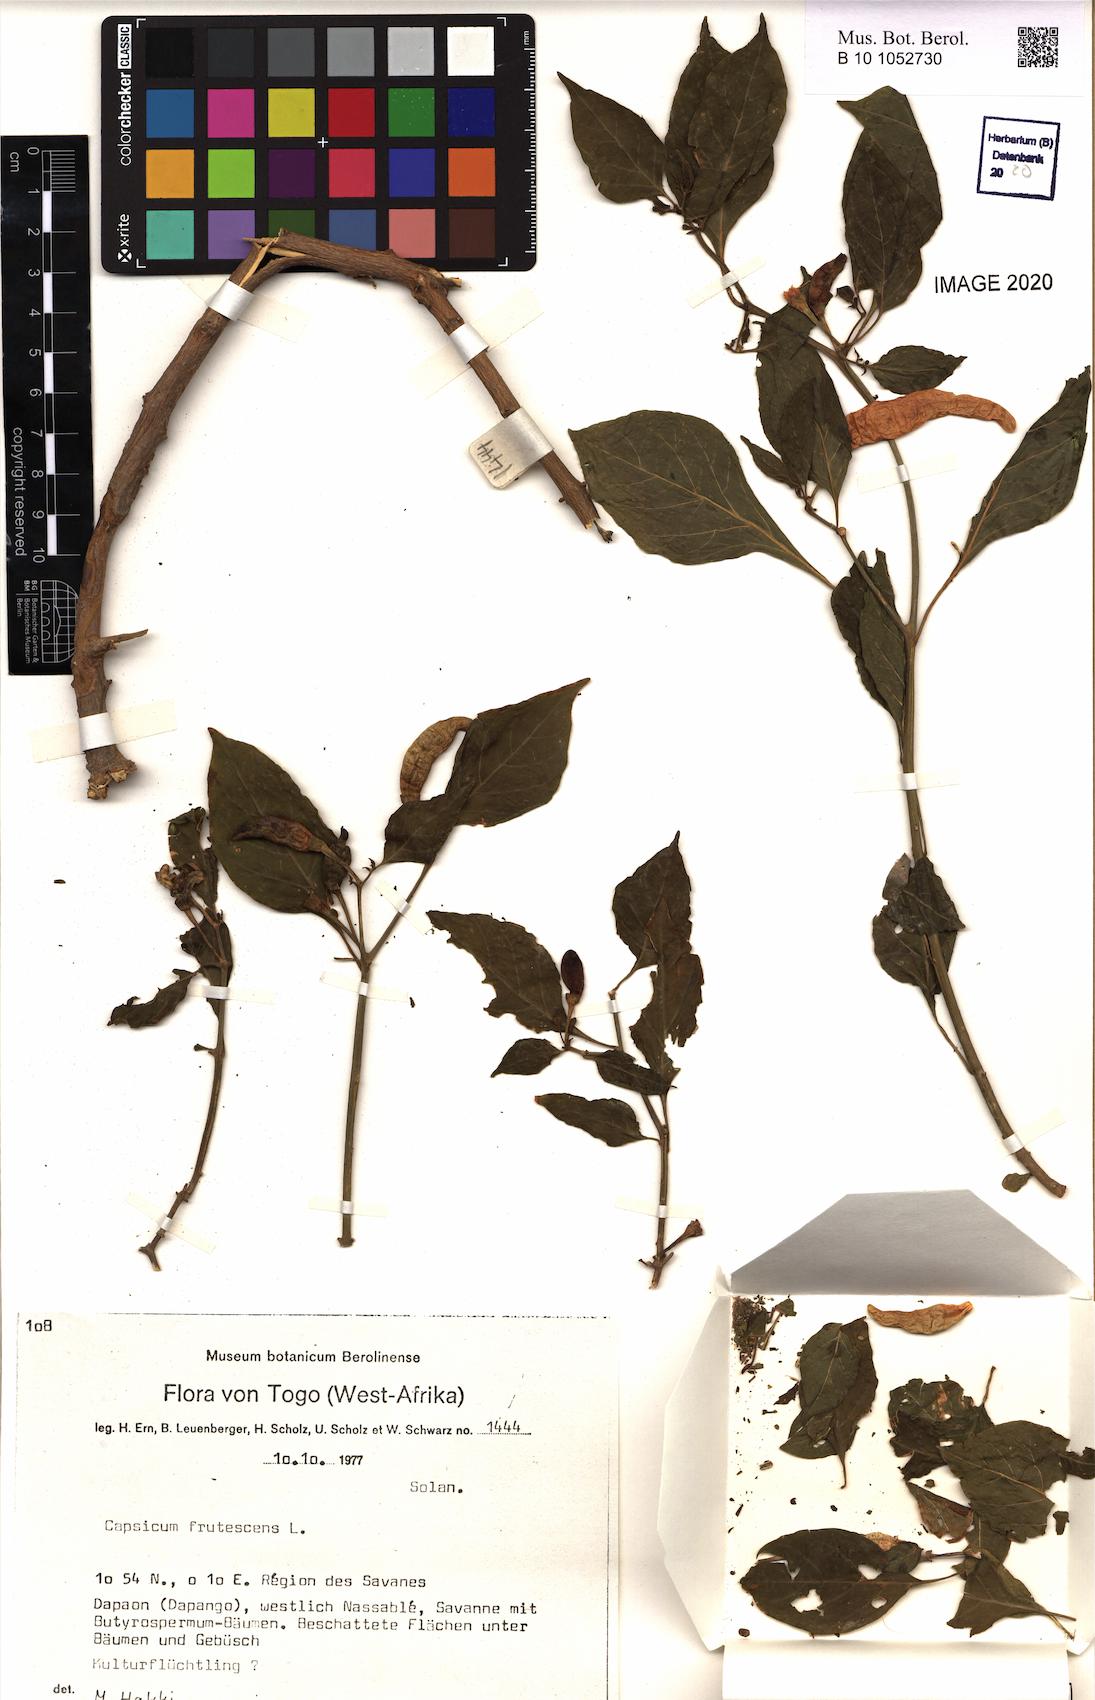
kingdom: Plantae
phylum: Tracheophyta
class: Magnoliopsida
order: Solanales
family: Solanaceae
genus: Capsicum
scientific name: Capsicum frutescens
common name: Bird pepper
